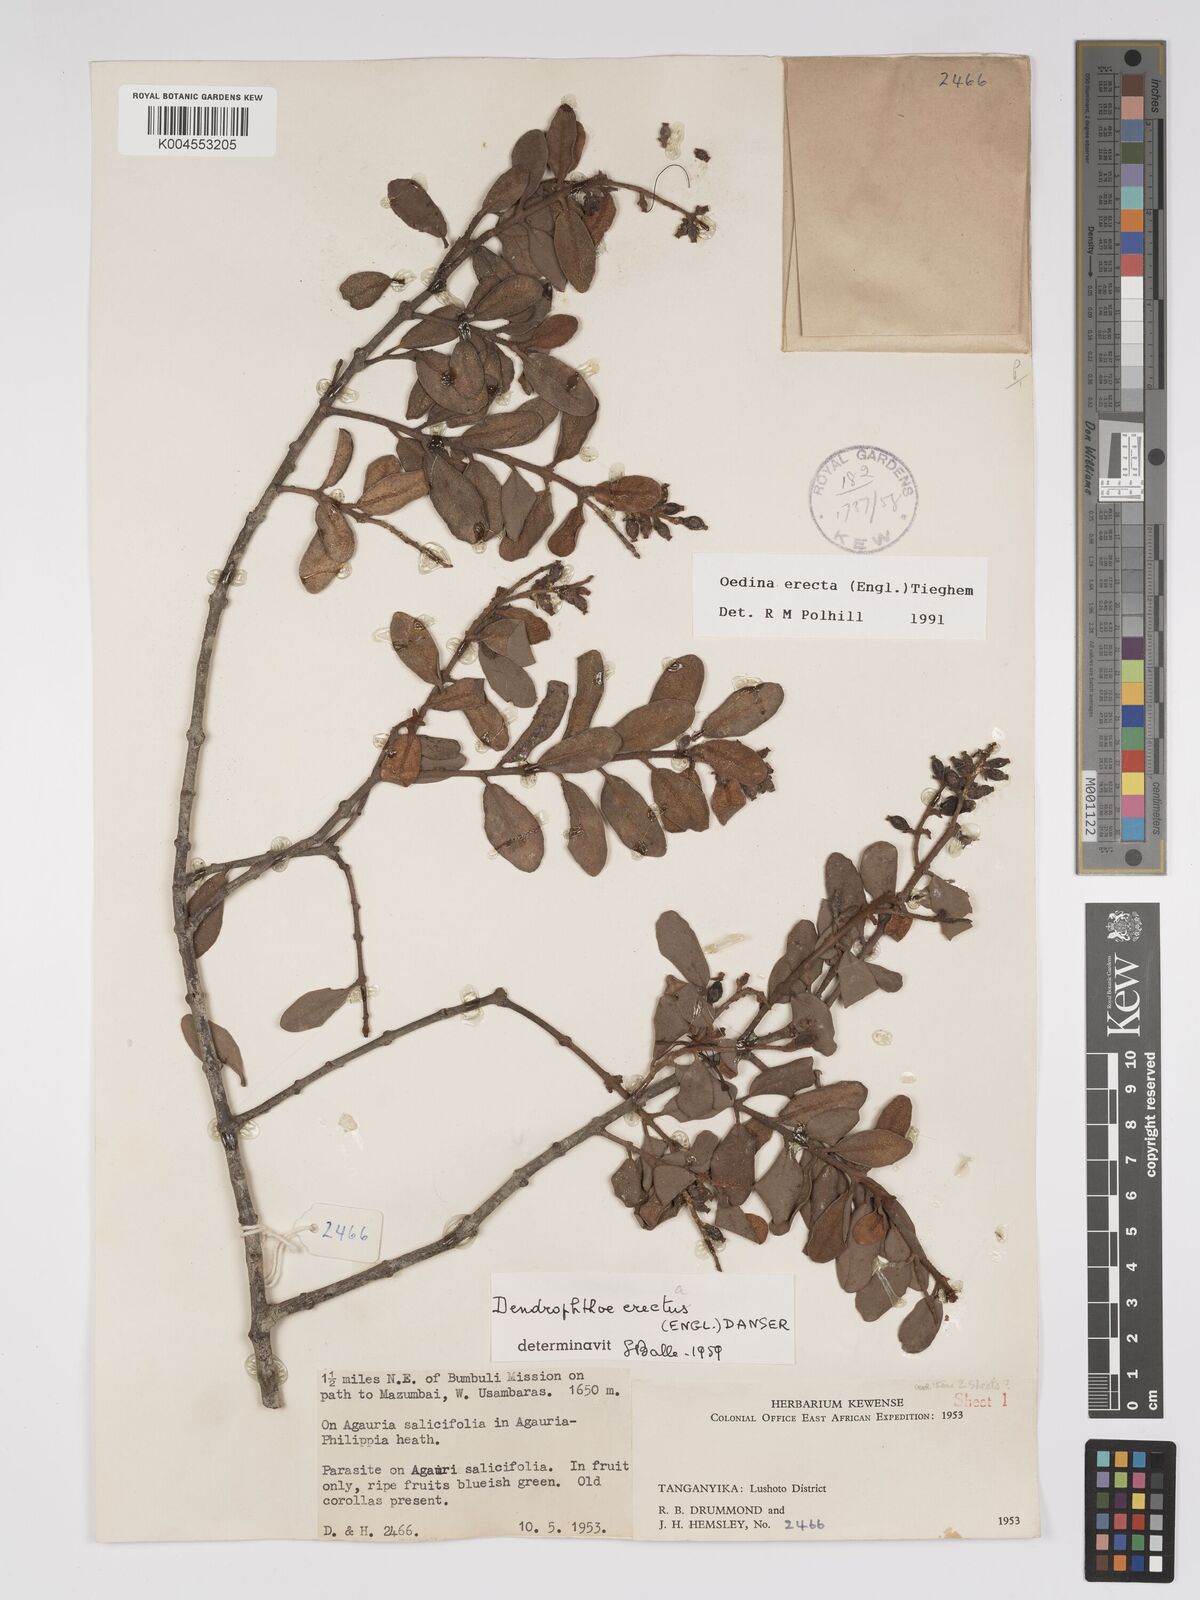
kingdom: Plantae
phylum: Tracheophyta
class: Magnoliopsida
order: Santalales
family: Loranthaceae
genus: Oedina
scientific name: Oedina erecta
